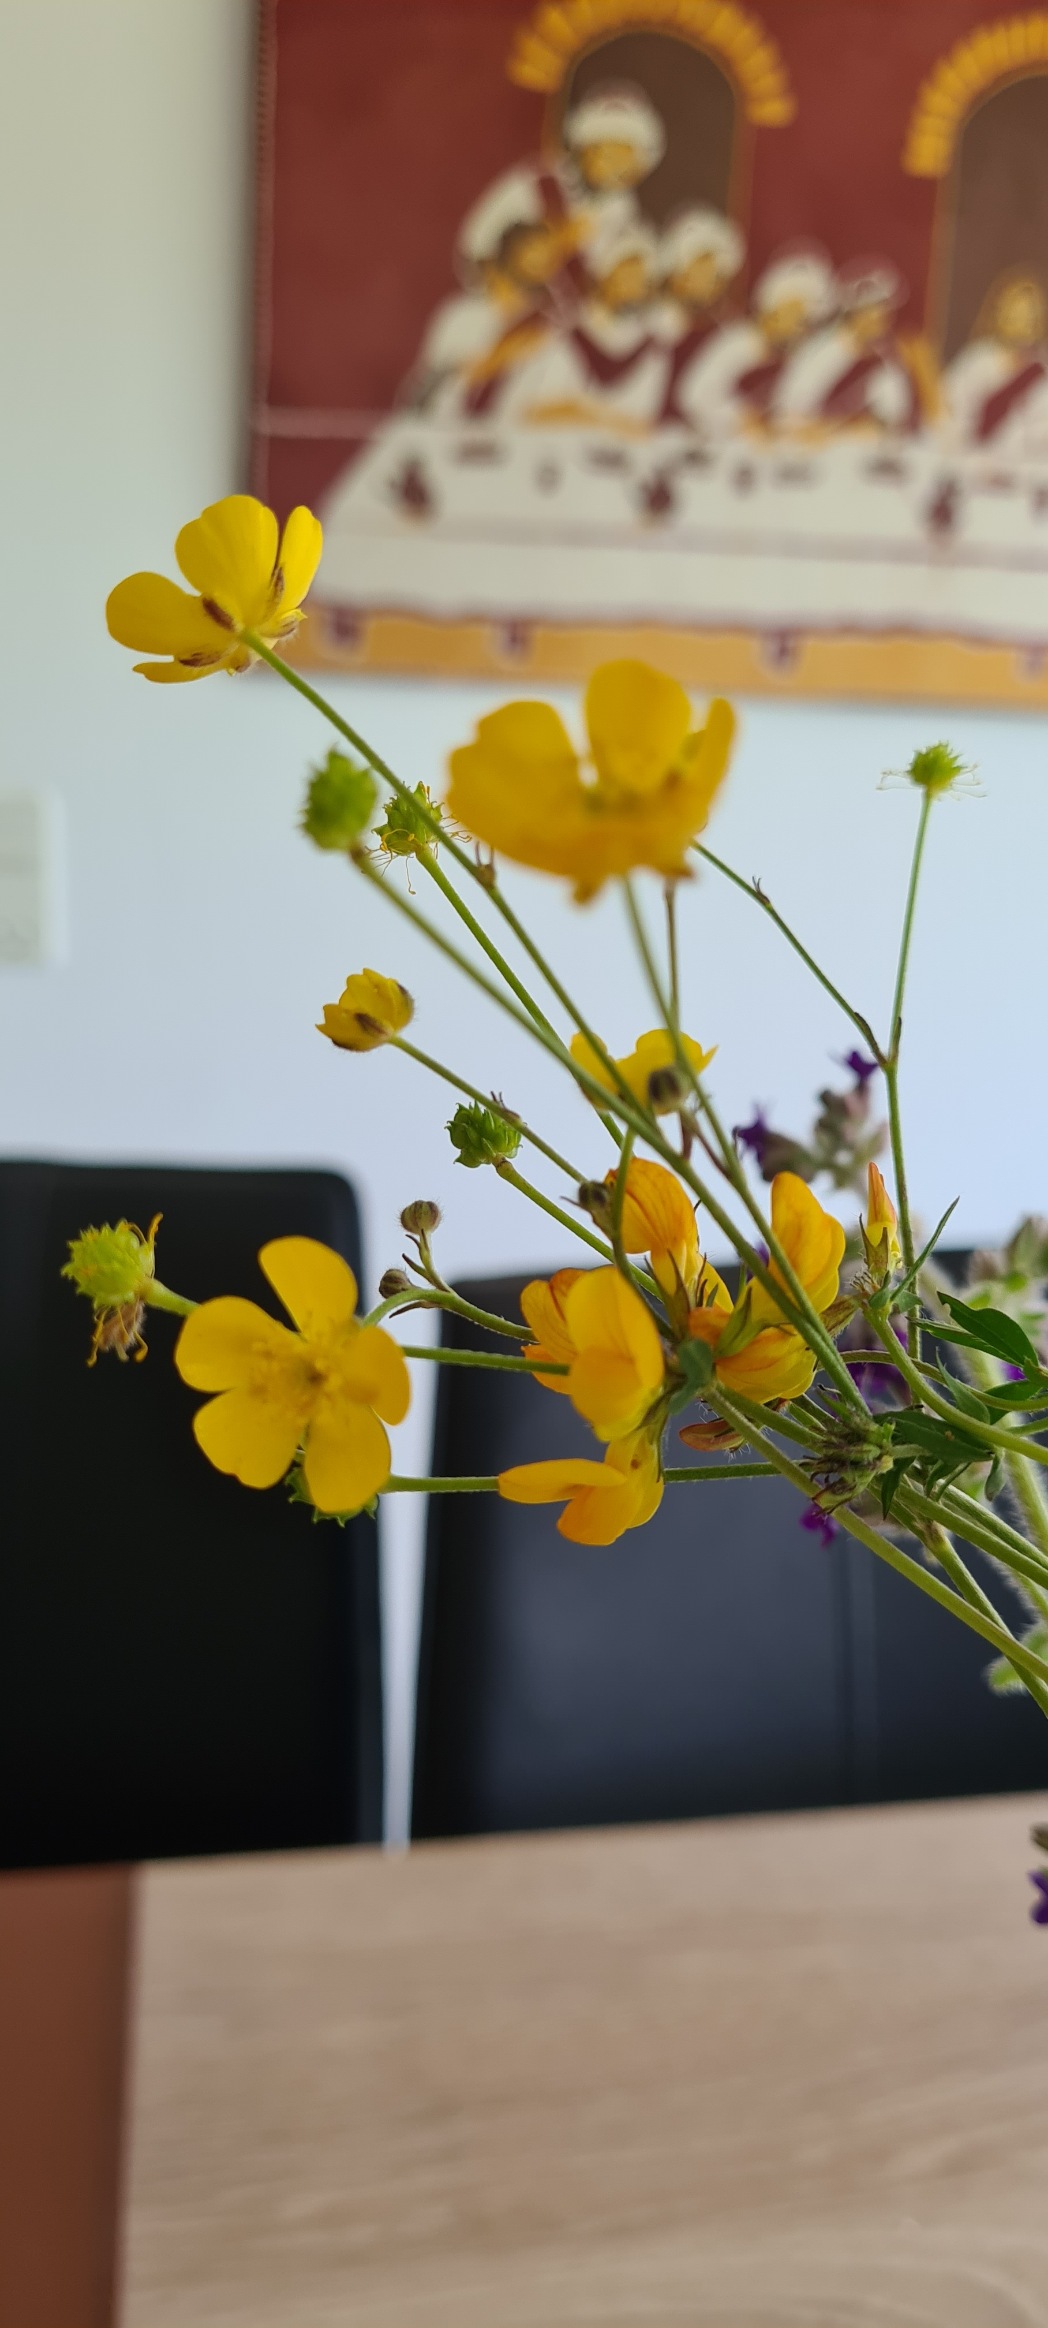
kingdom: Plantae
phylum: Tracheophyta
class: Magnoliopsida
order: Ranunculales
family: Ranunculaceae
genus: Ranunculus
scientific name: Ranunculus acris
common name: Bidende ranunkel
